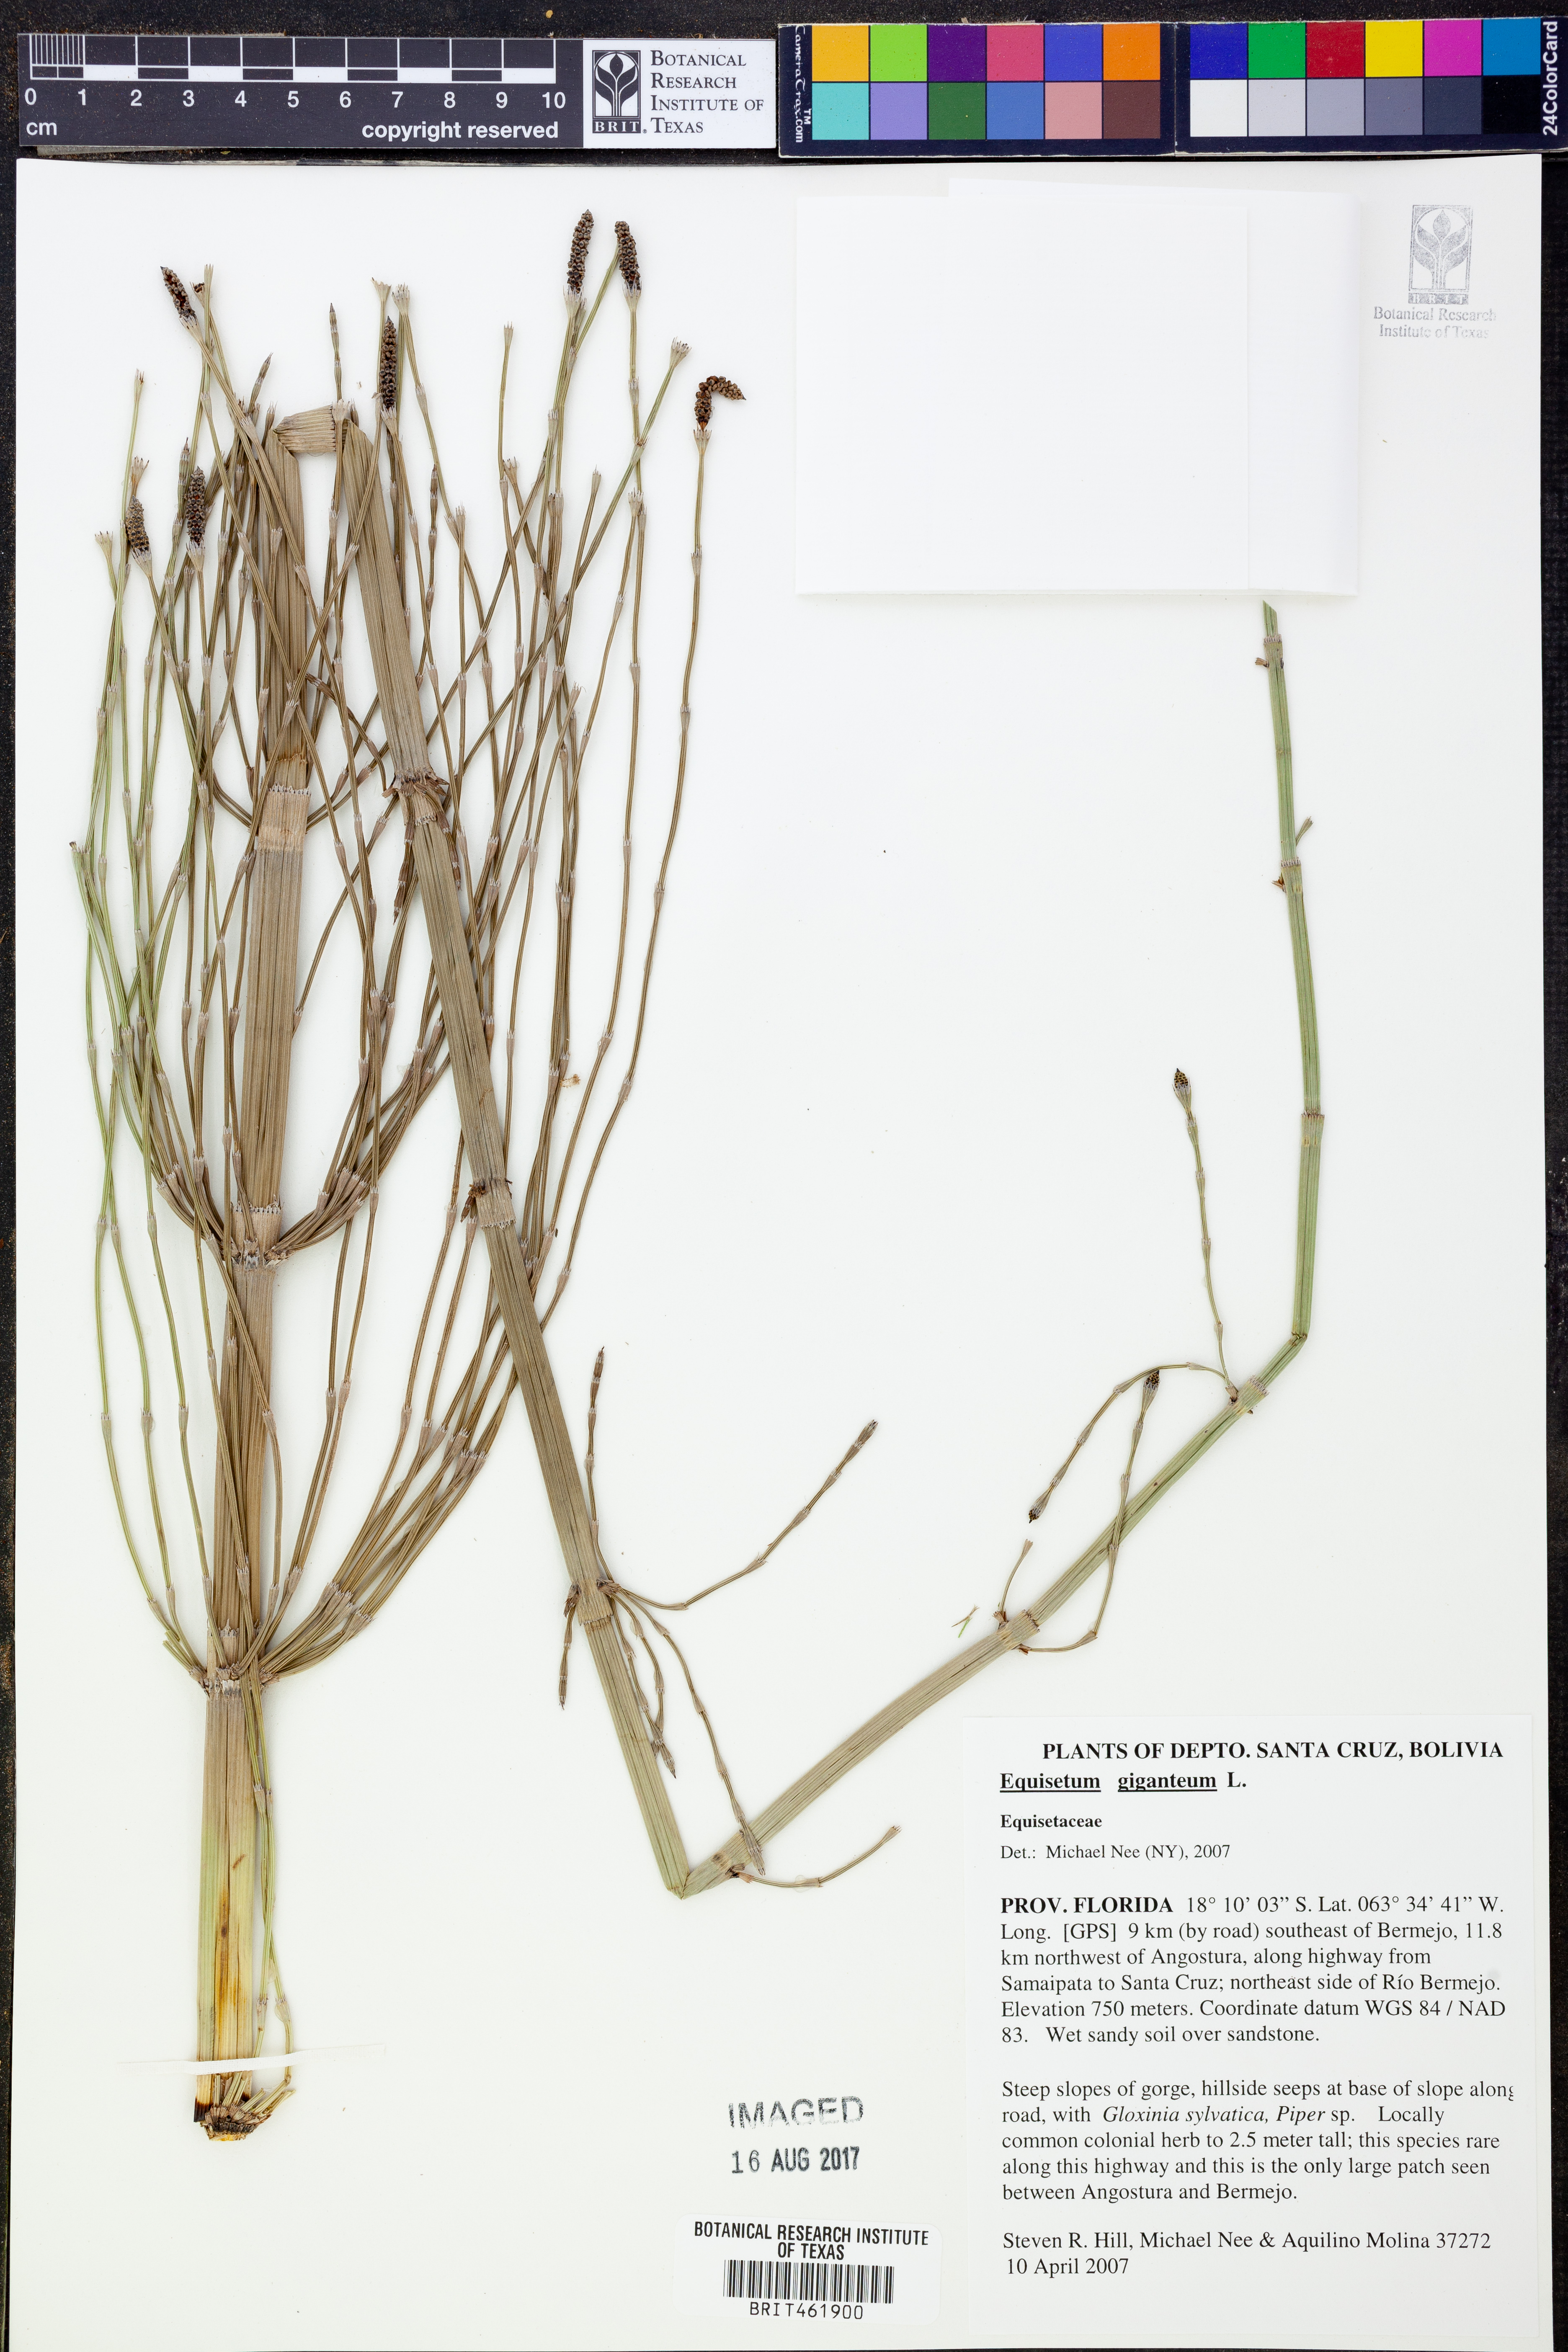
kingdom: Plantae
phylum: Tracheophyta
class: Polypodiopsida
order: Equisetales
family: Equisetaceae
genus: Equisetum
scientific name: Equisetum giganteum
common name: Giant horsetail
